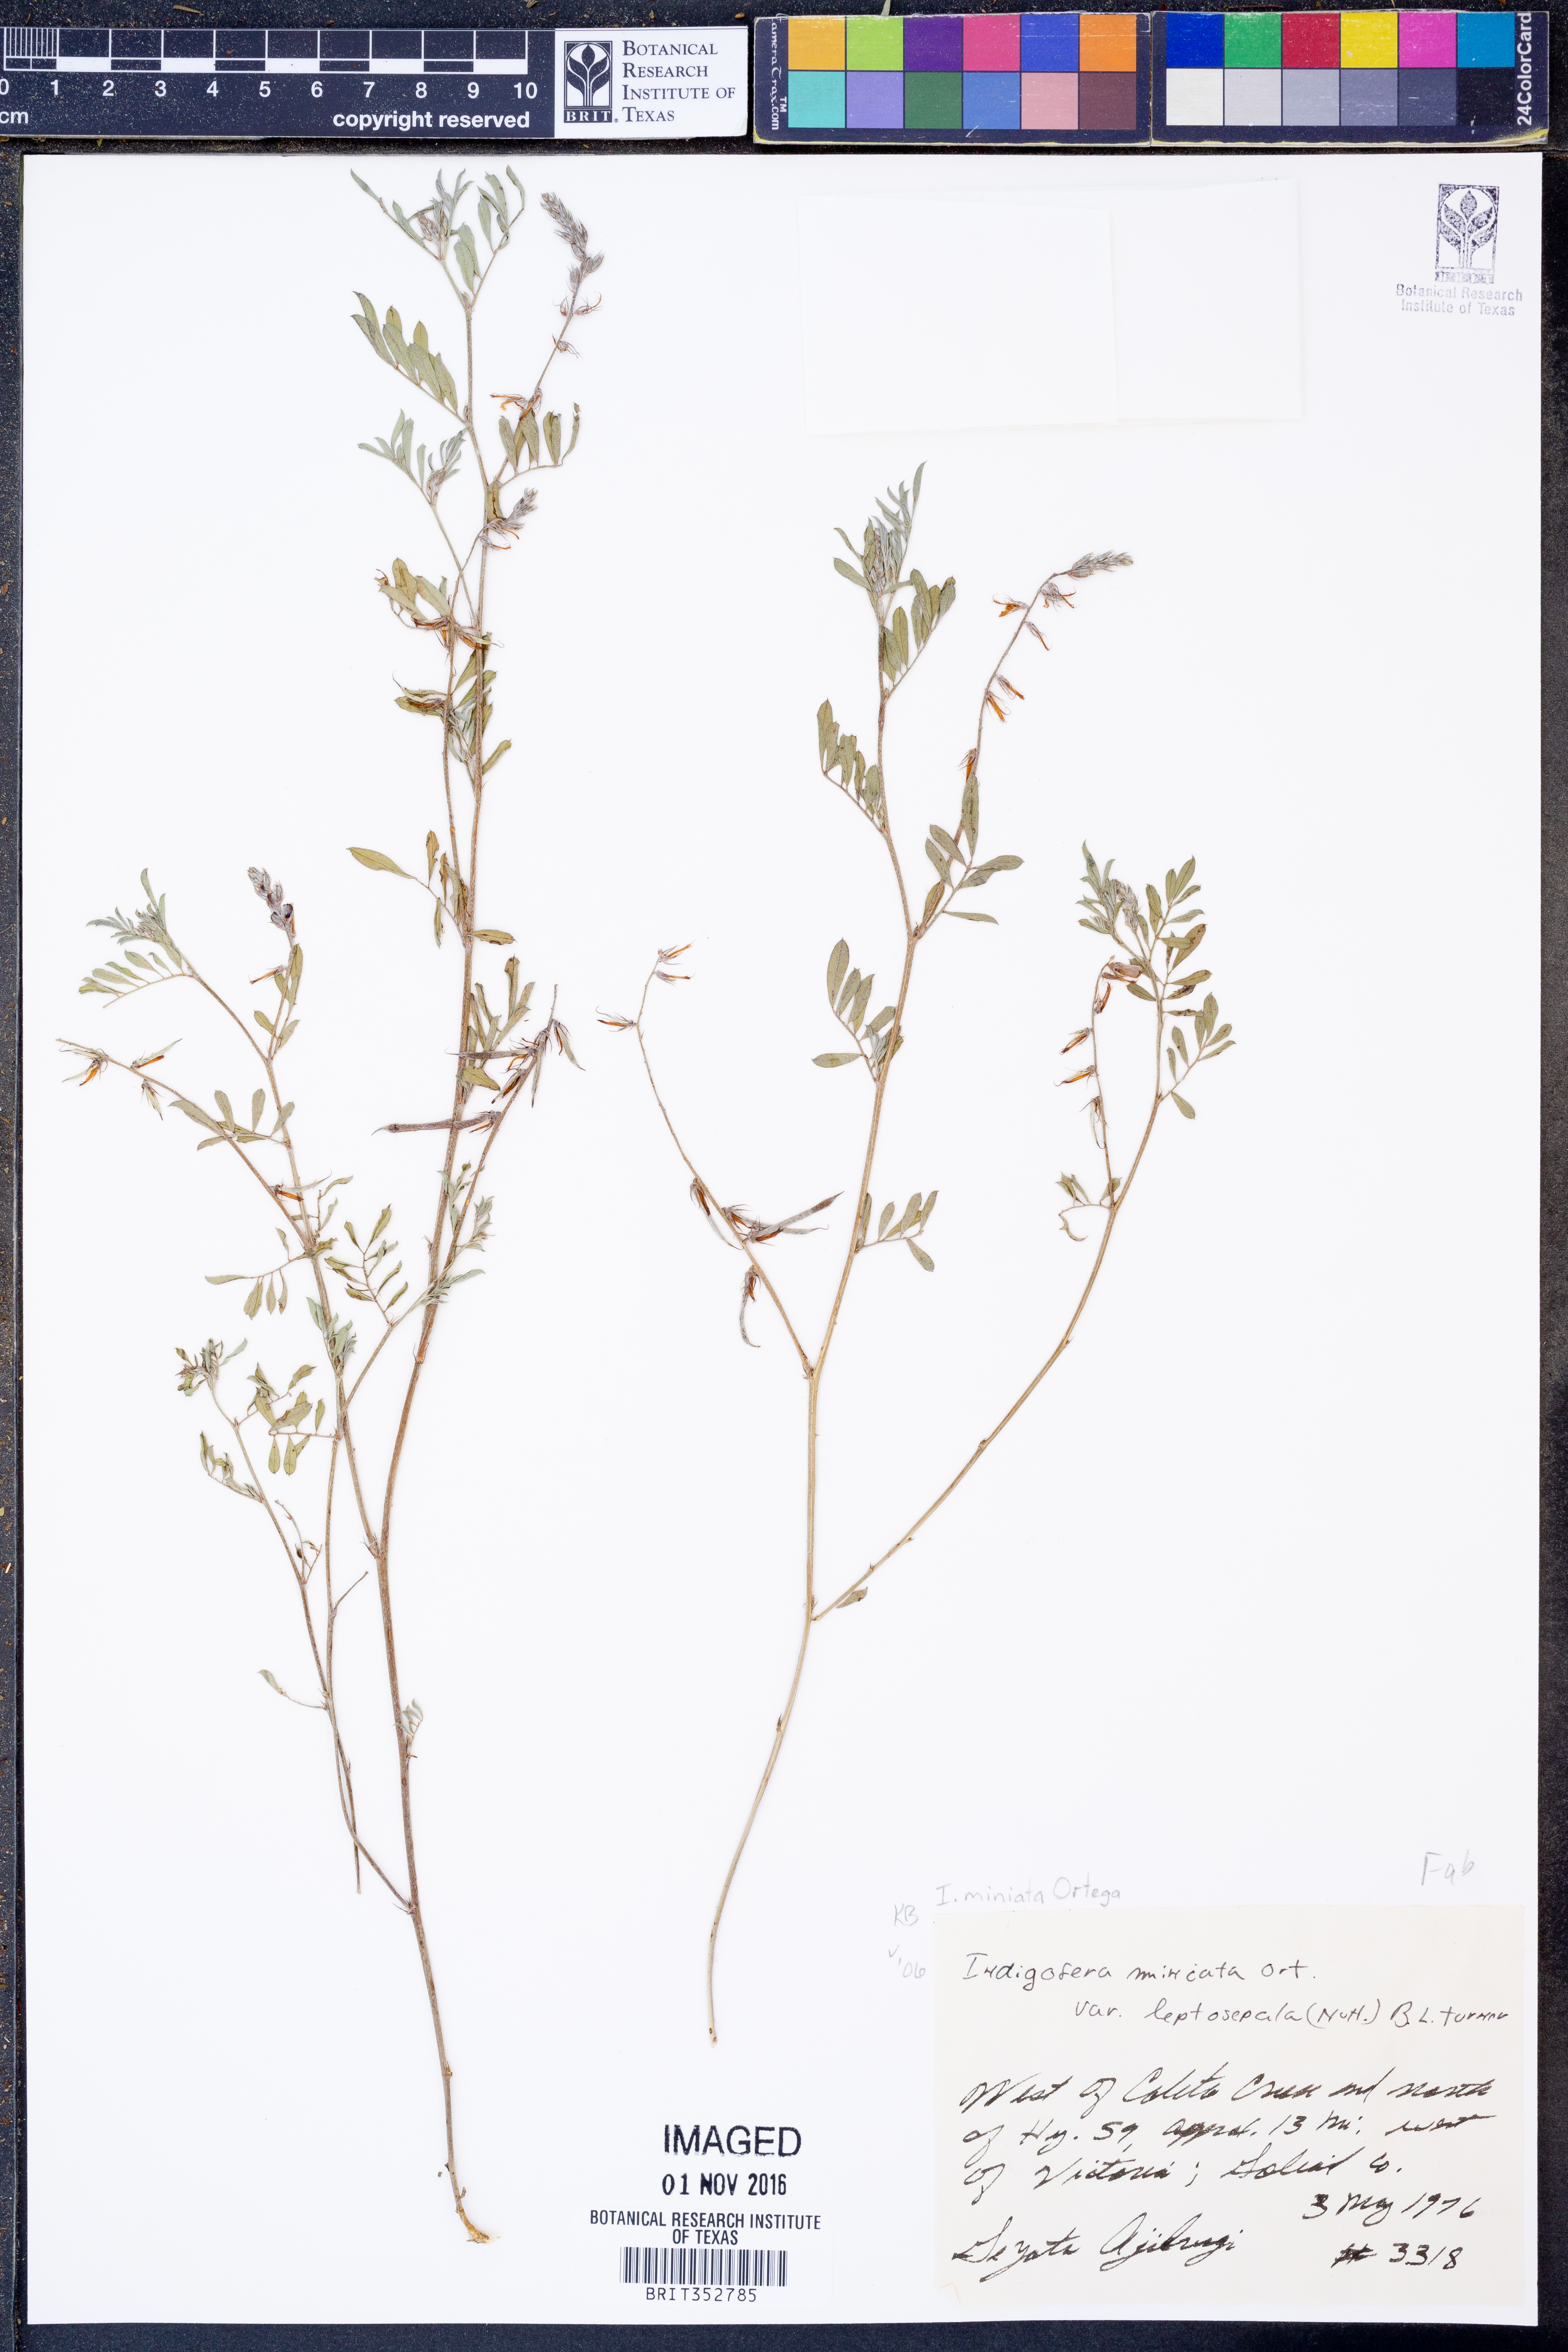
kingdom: Plantae
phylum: Tracheophyta
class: Magnoliopsida
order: Fabales
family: Fabaceae
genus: Indigofera
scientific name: Indigofera miniata
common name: Coast indigo
